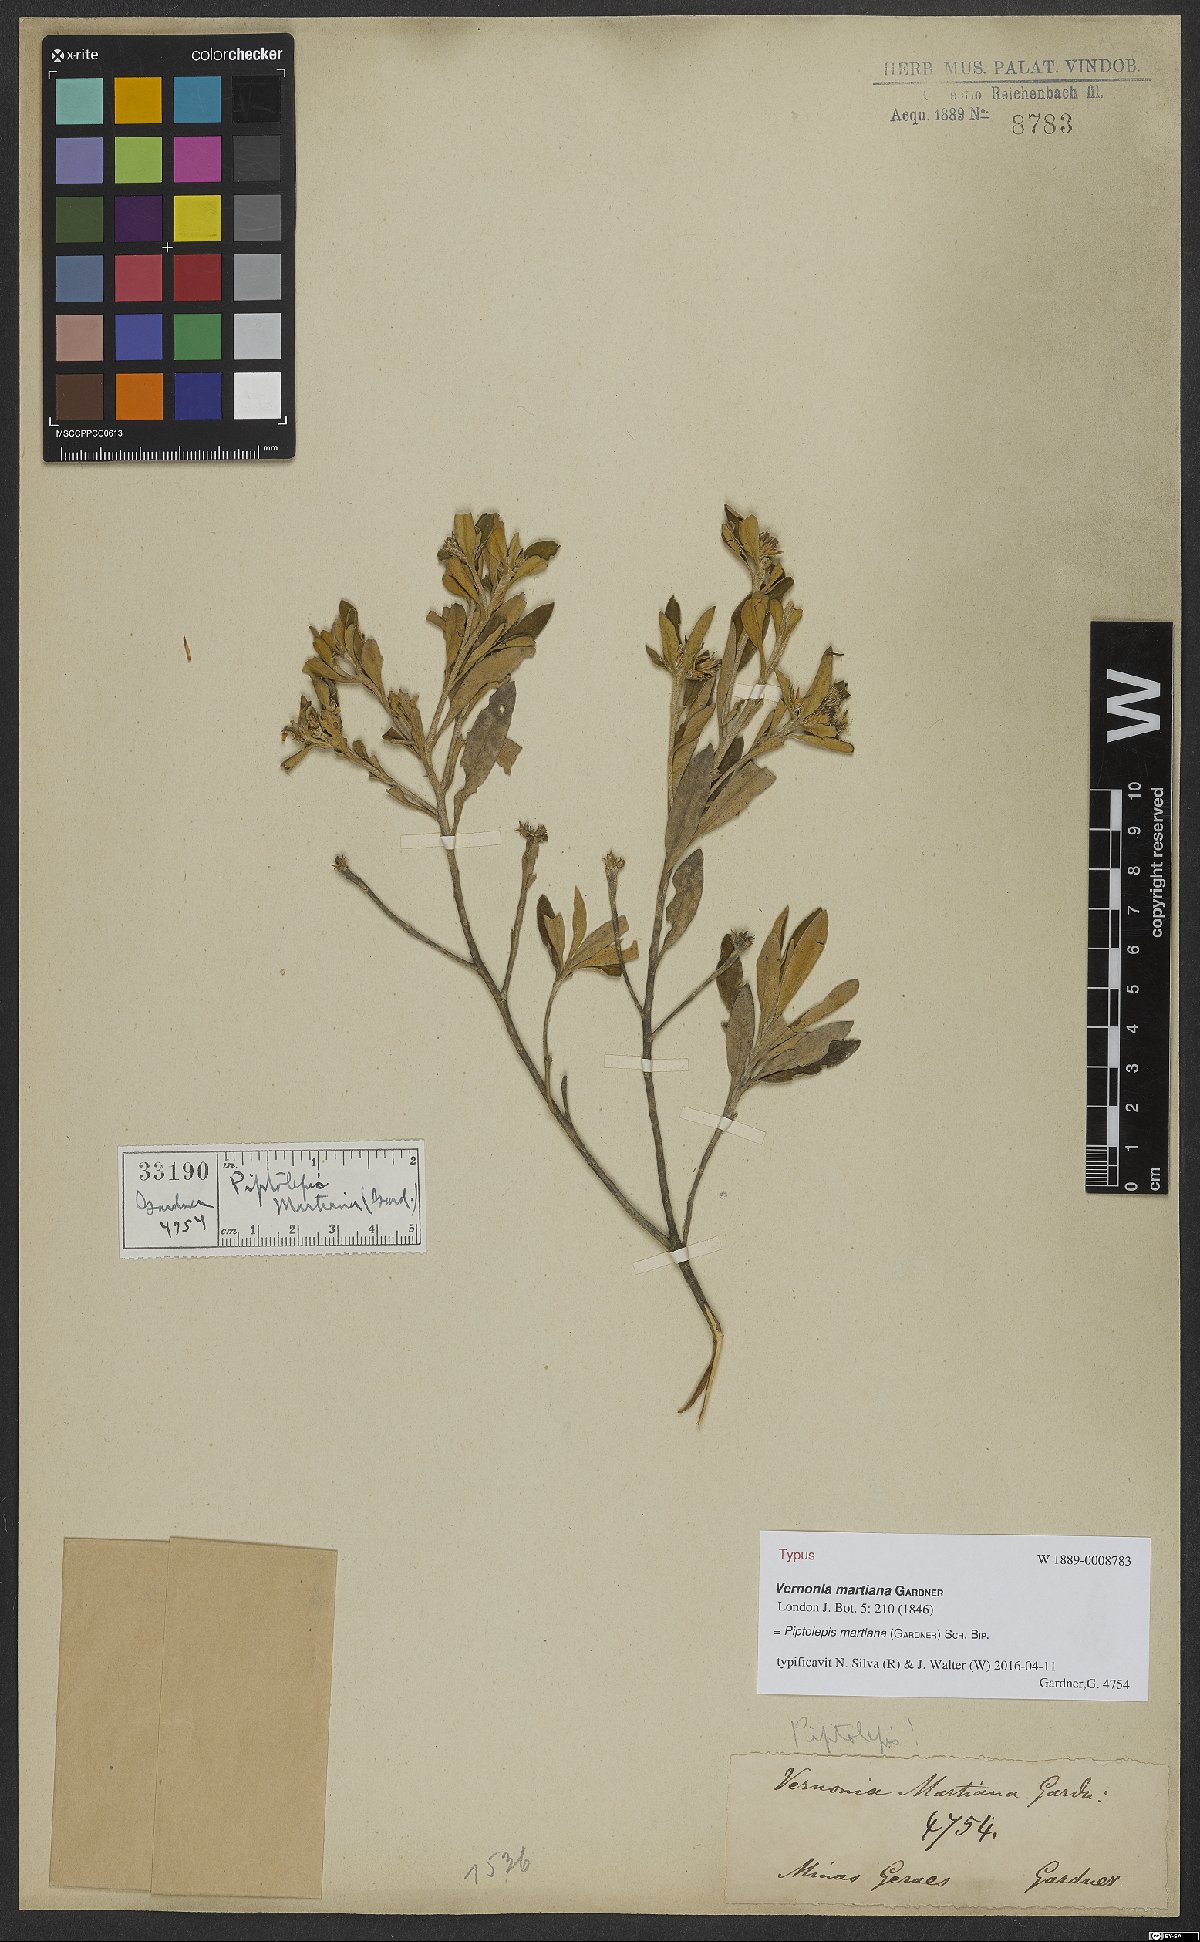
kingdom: Plantae
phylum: Tracheophyta
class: Magnoliopsida
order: Asterales
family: Asteraceae
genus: Piptolepis
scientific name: Piptolepis oleaster
